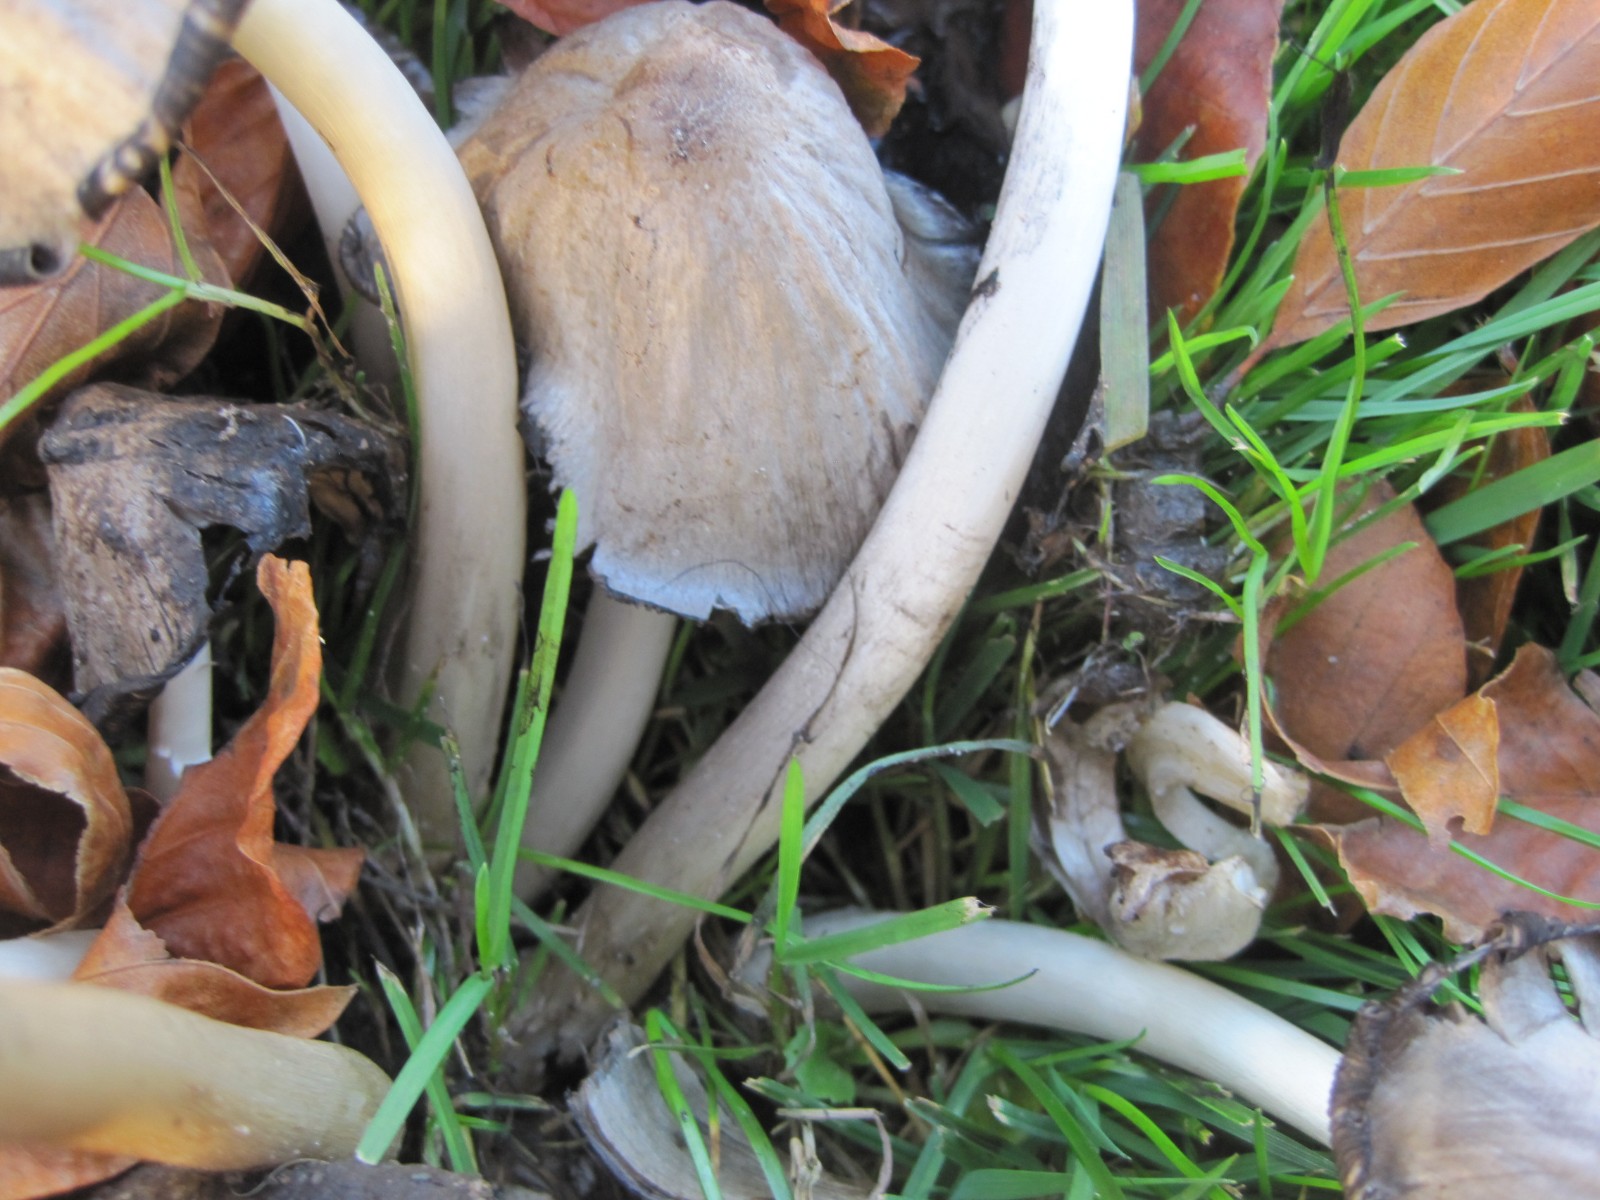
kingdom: Fungi
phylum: Basidiomycota
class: Agaricomycetes
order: Agaricales
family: Psathyrellaceae
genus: Coprinopsis
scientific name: Coprinopsis atramentaria
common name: almindelig blækhat
